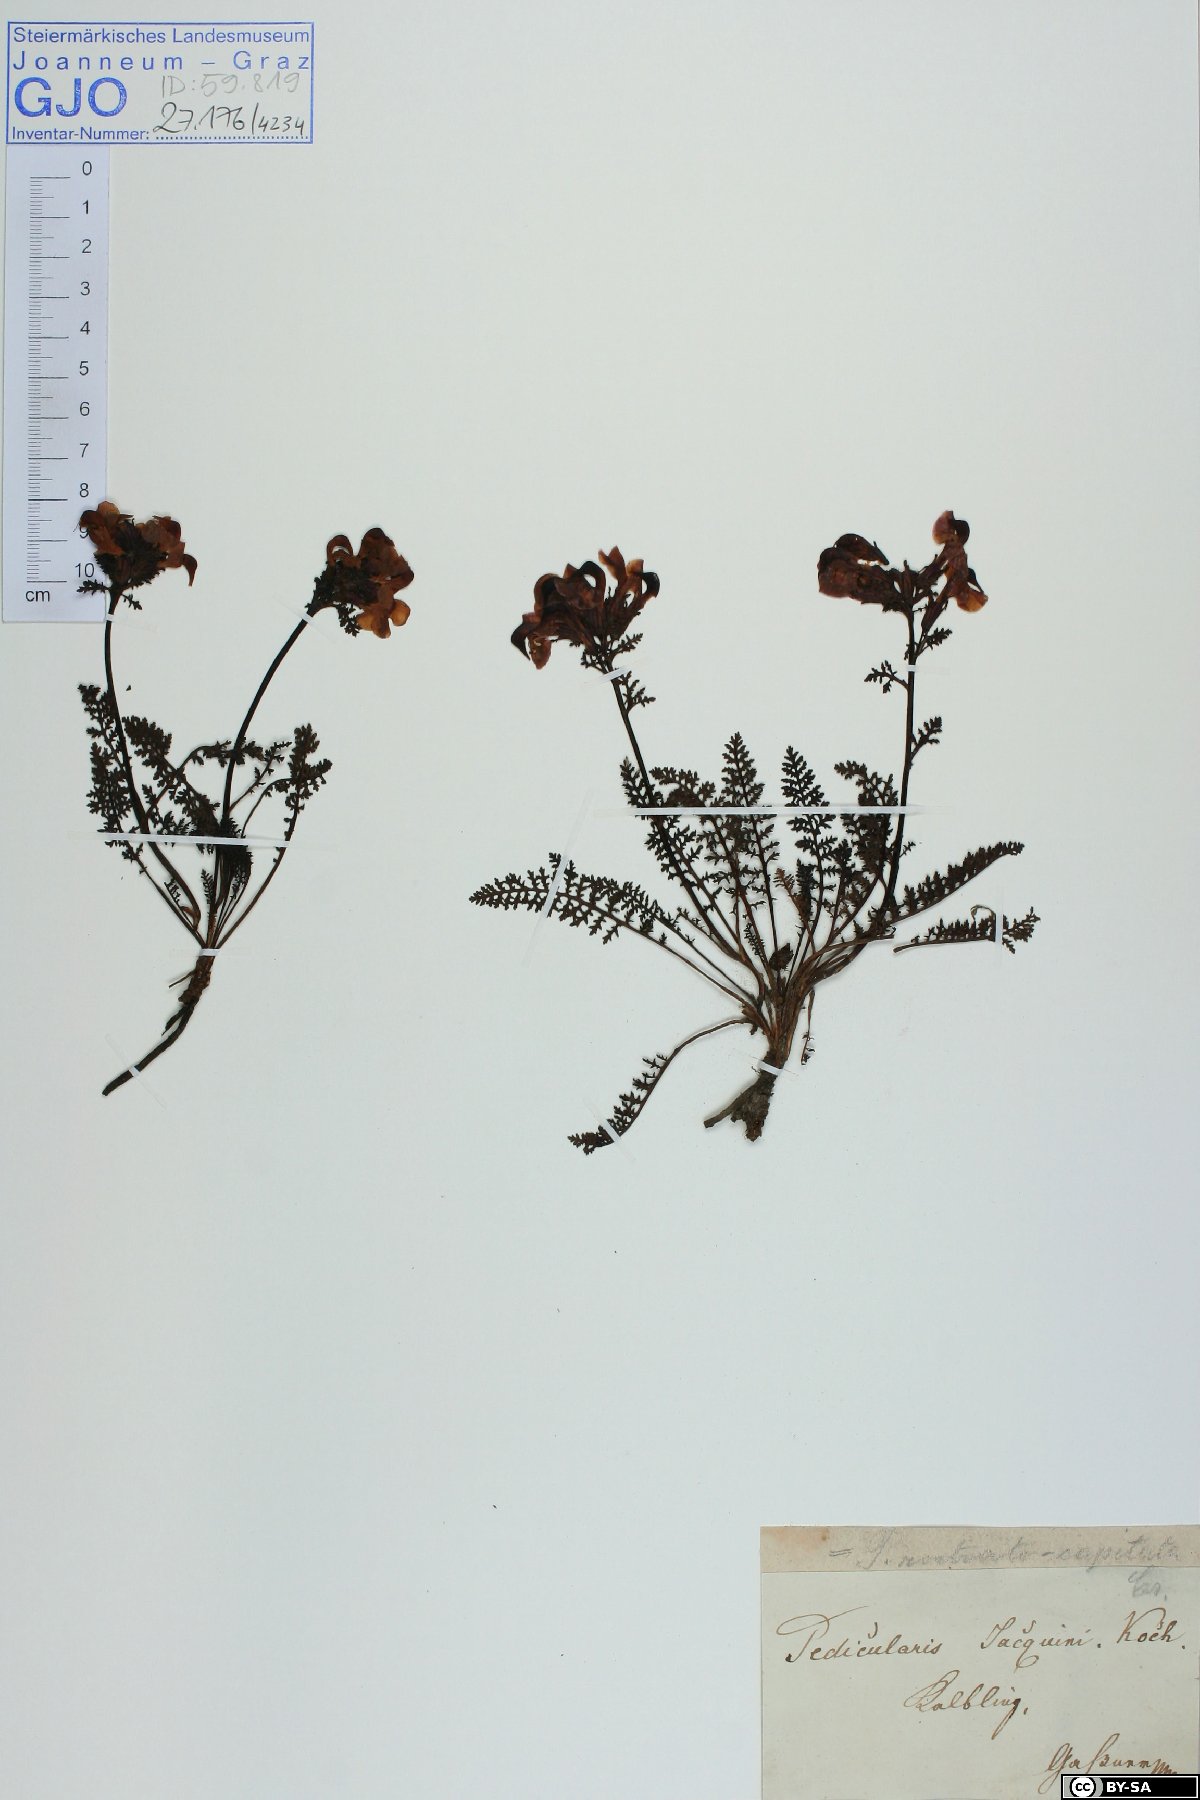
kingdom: Plantae
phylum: Tracheophyta
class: Magnoliopsida
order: Lamiales
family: Orobanchaceae
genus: Pedicularis
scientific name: Pedicularis rostratocapitata
